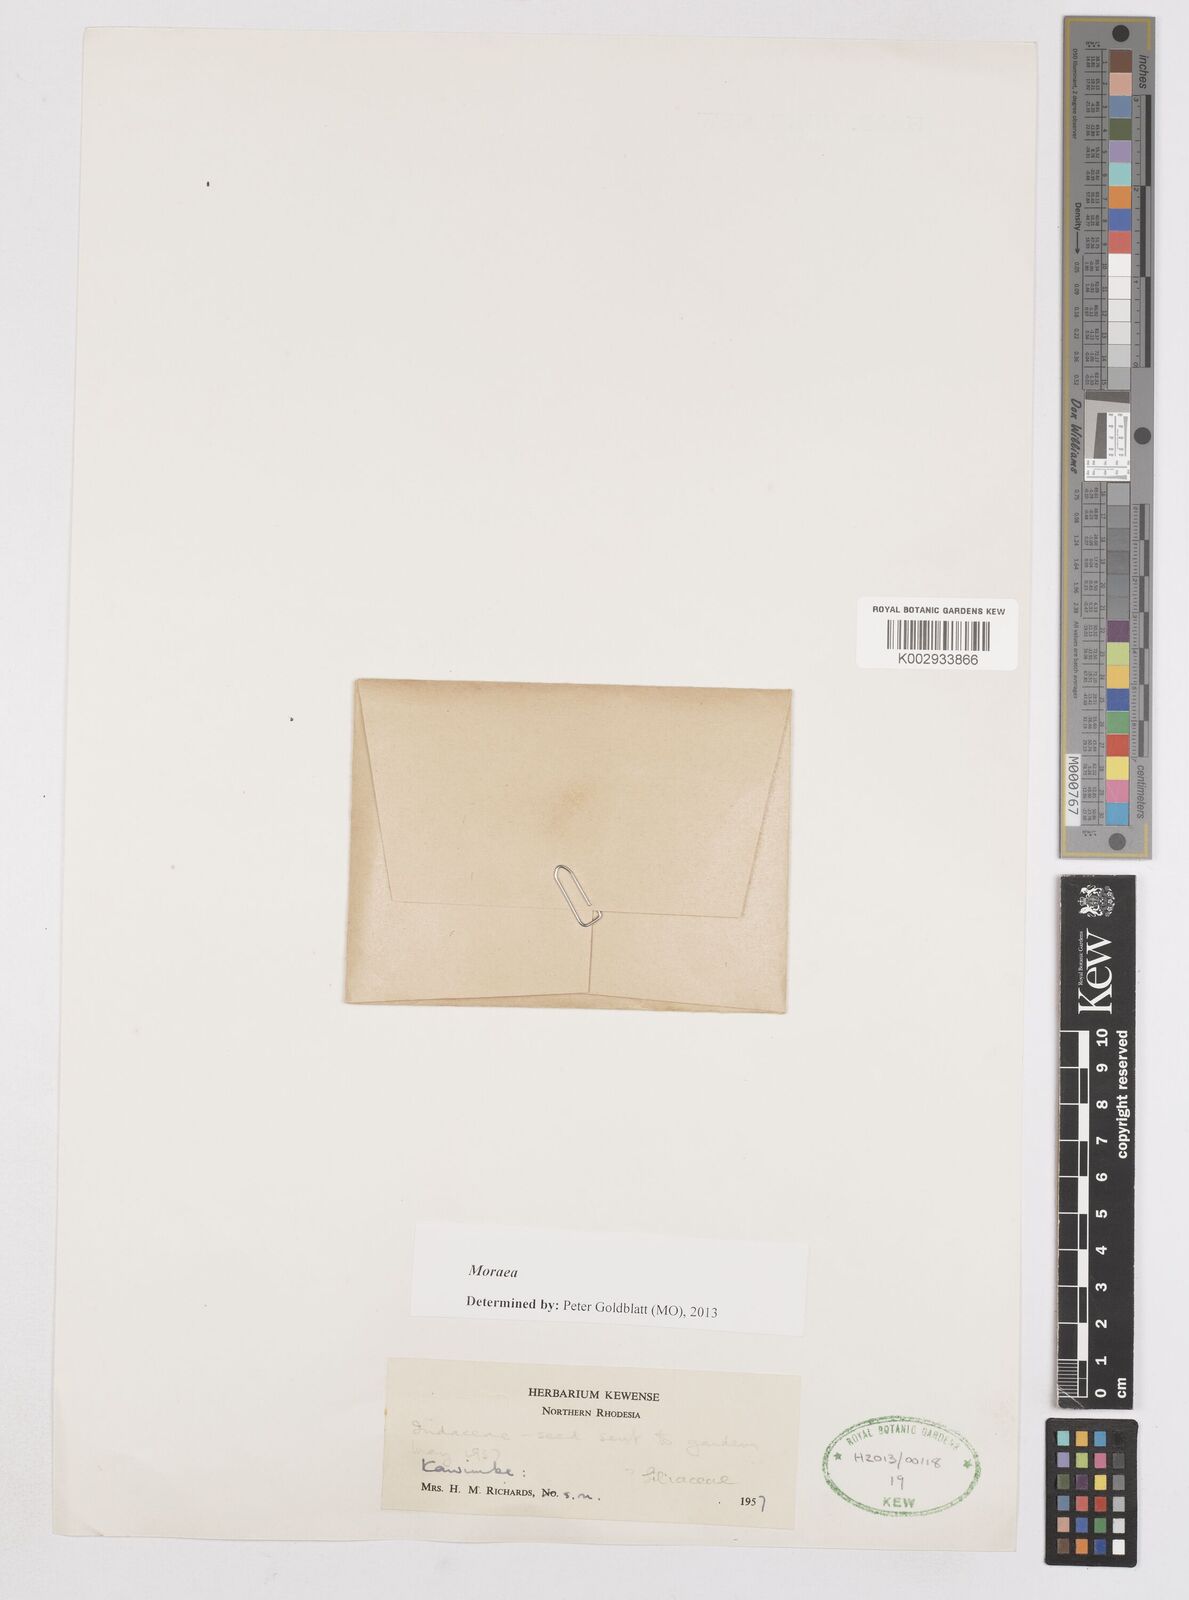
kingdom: Plantae
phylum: Tracheophyta
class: Liliopsida
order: Asparagales
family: Iridaceae
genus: Moraea
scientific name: Moraea
